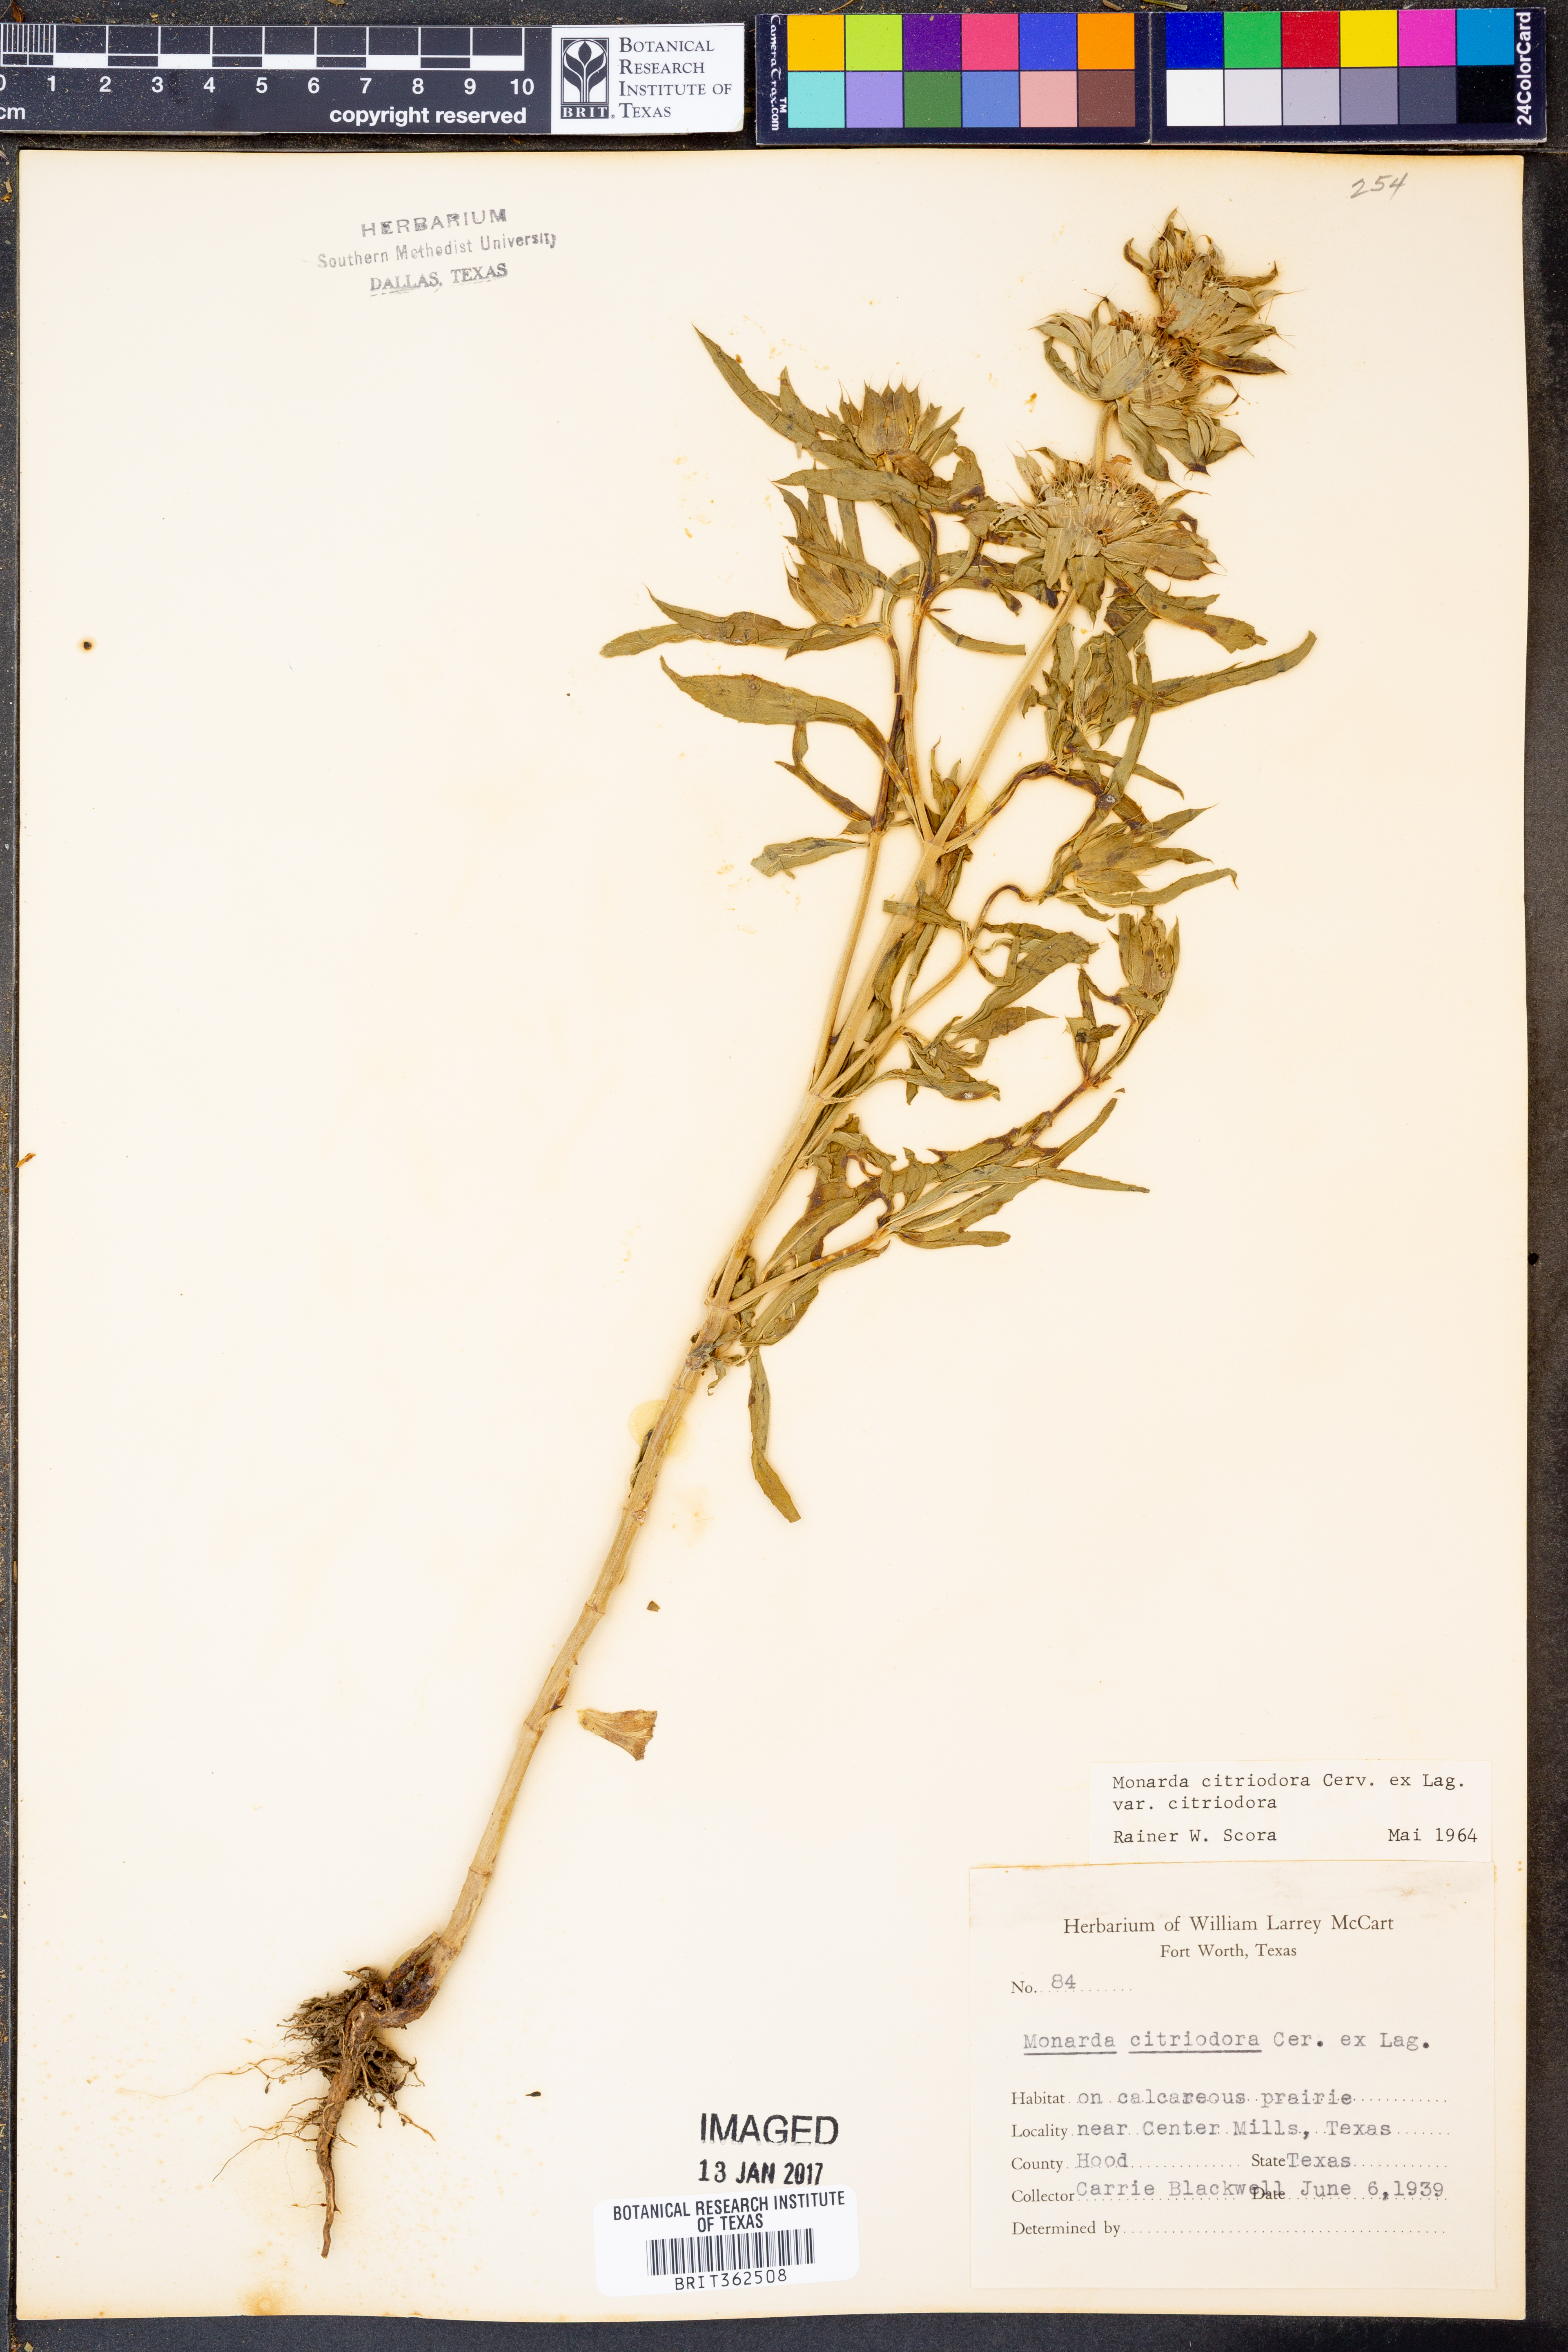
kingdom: Plantae
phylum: Tracheophyta
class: Magnoliopsida
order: Lamiales
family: Lamiaceae
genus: Monarda
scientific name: Monarda citriodora
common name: Lemon beebalm
